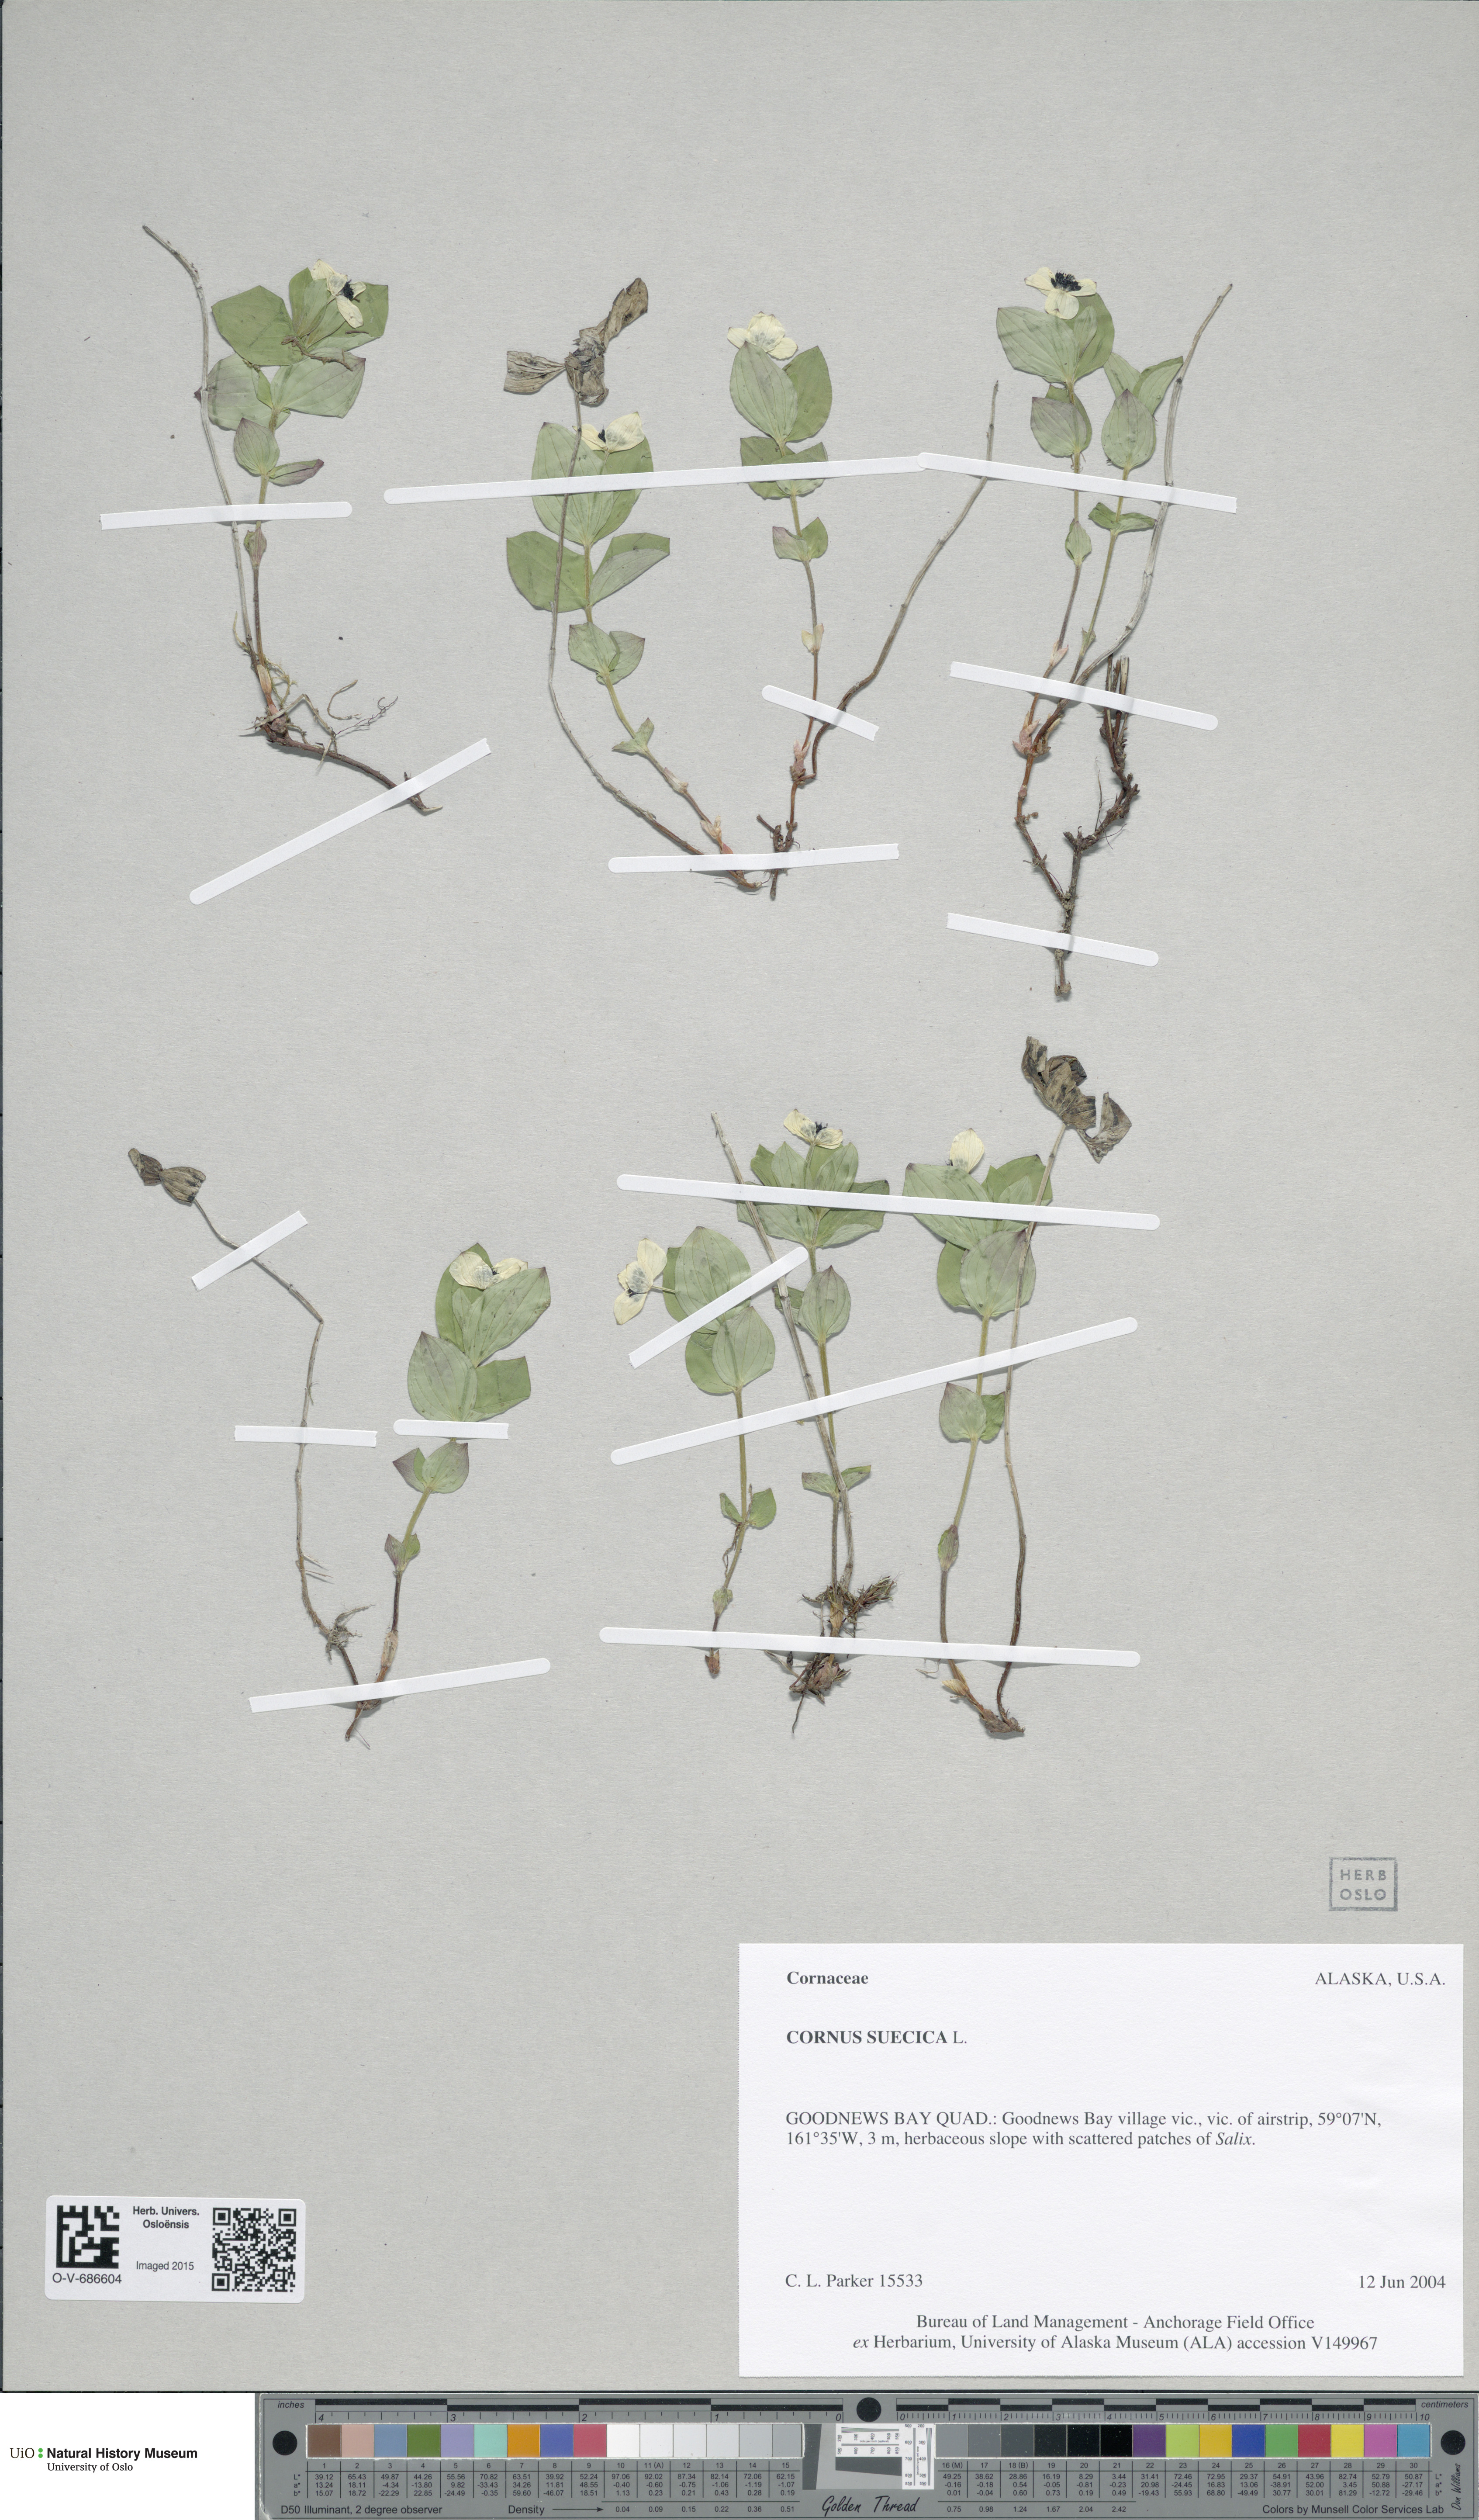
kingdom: Plantae
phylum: Tracheophyta
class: Magnoliopsida
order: Cornales
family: Cornaceae
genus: Cornus
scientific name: Cornus suecica
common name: Dwarf cornel
